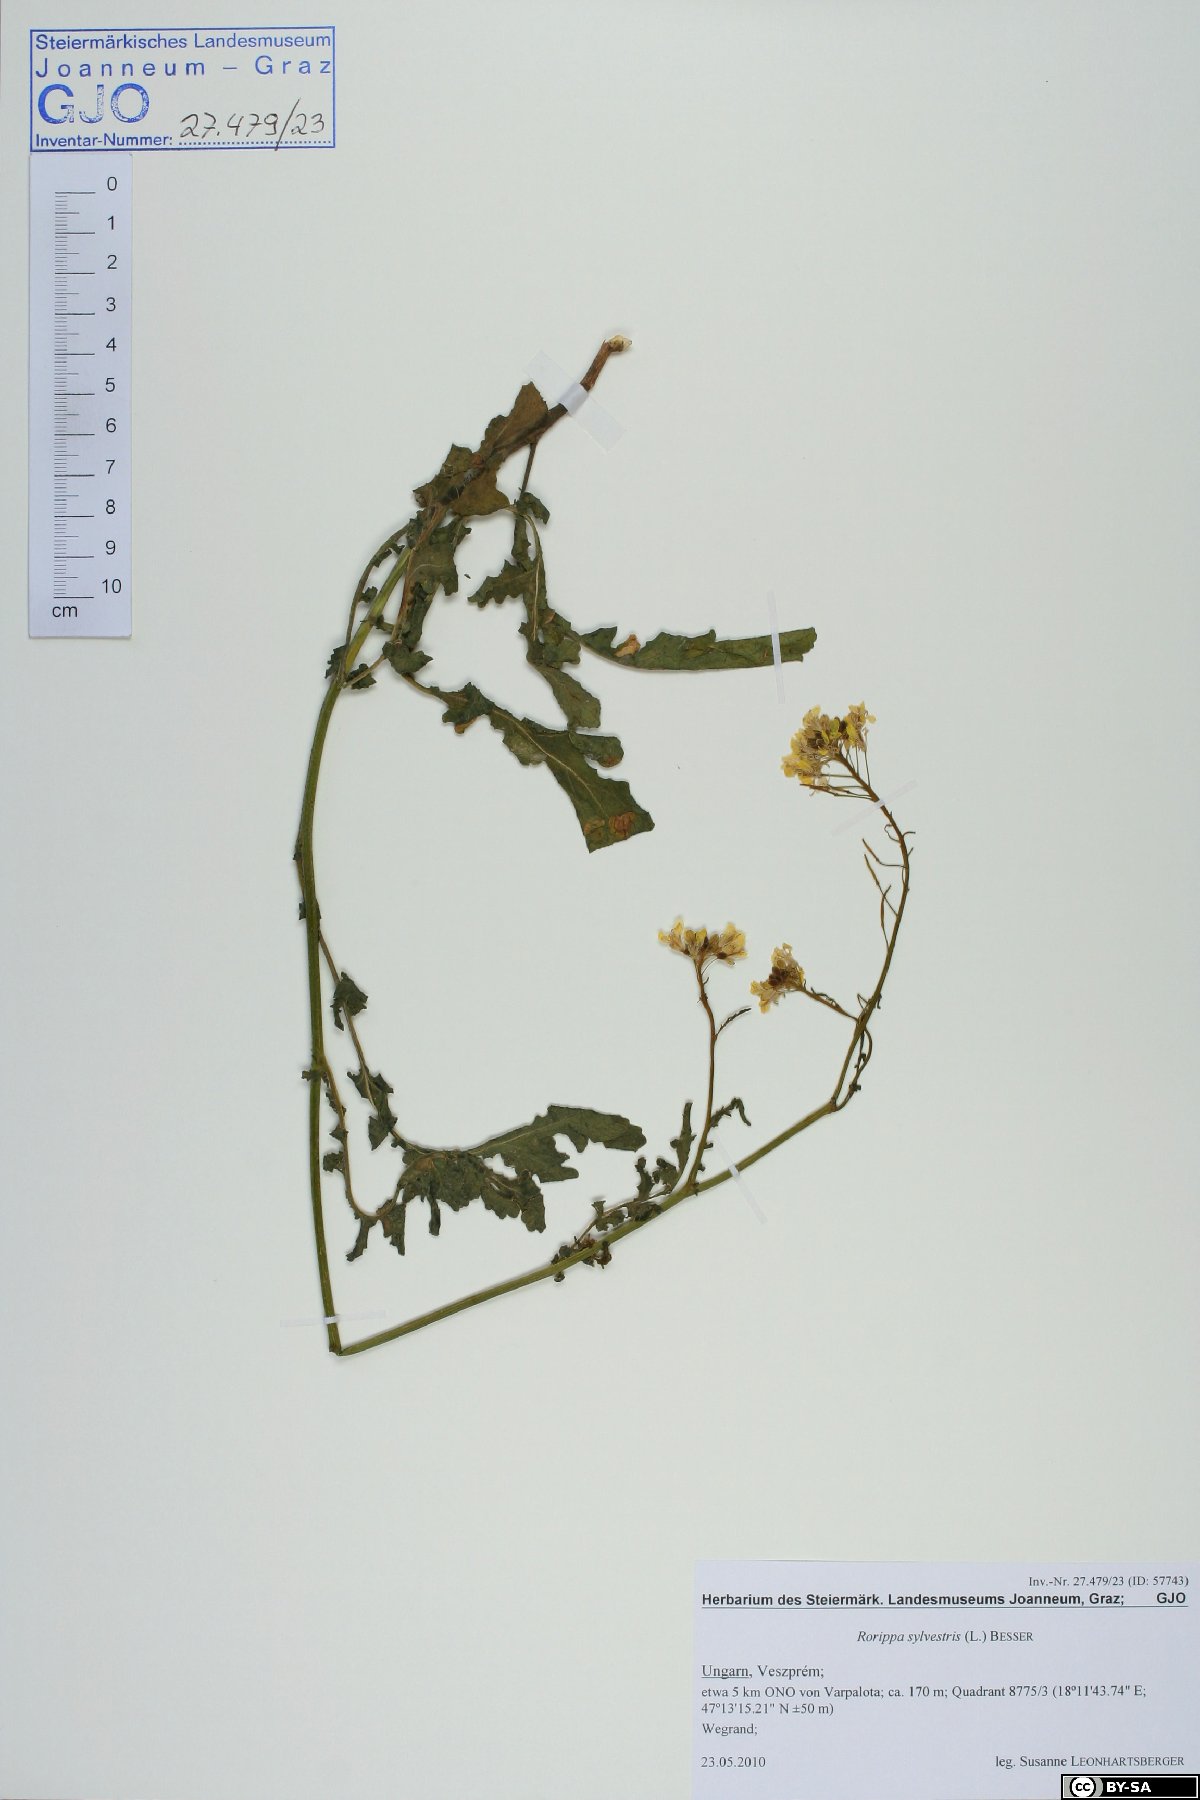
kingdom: Plantae
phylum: Tracheophyta
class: Magnoliopsida
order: Brassicales
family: Brassicaceae
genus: Rorippa
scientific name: Rorippa sylvestris
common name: Creeping yellowcress
